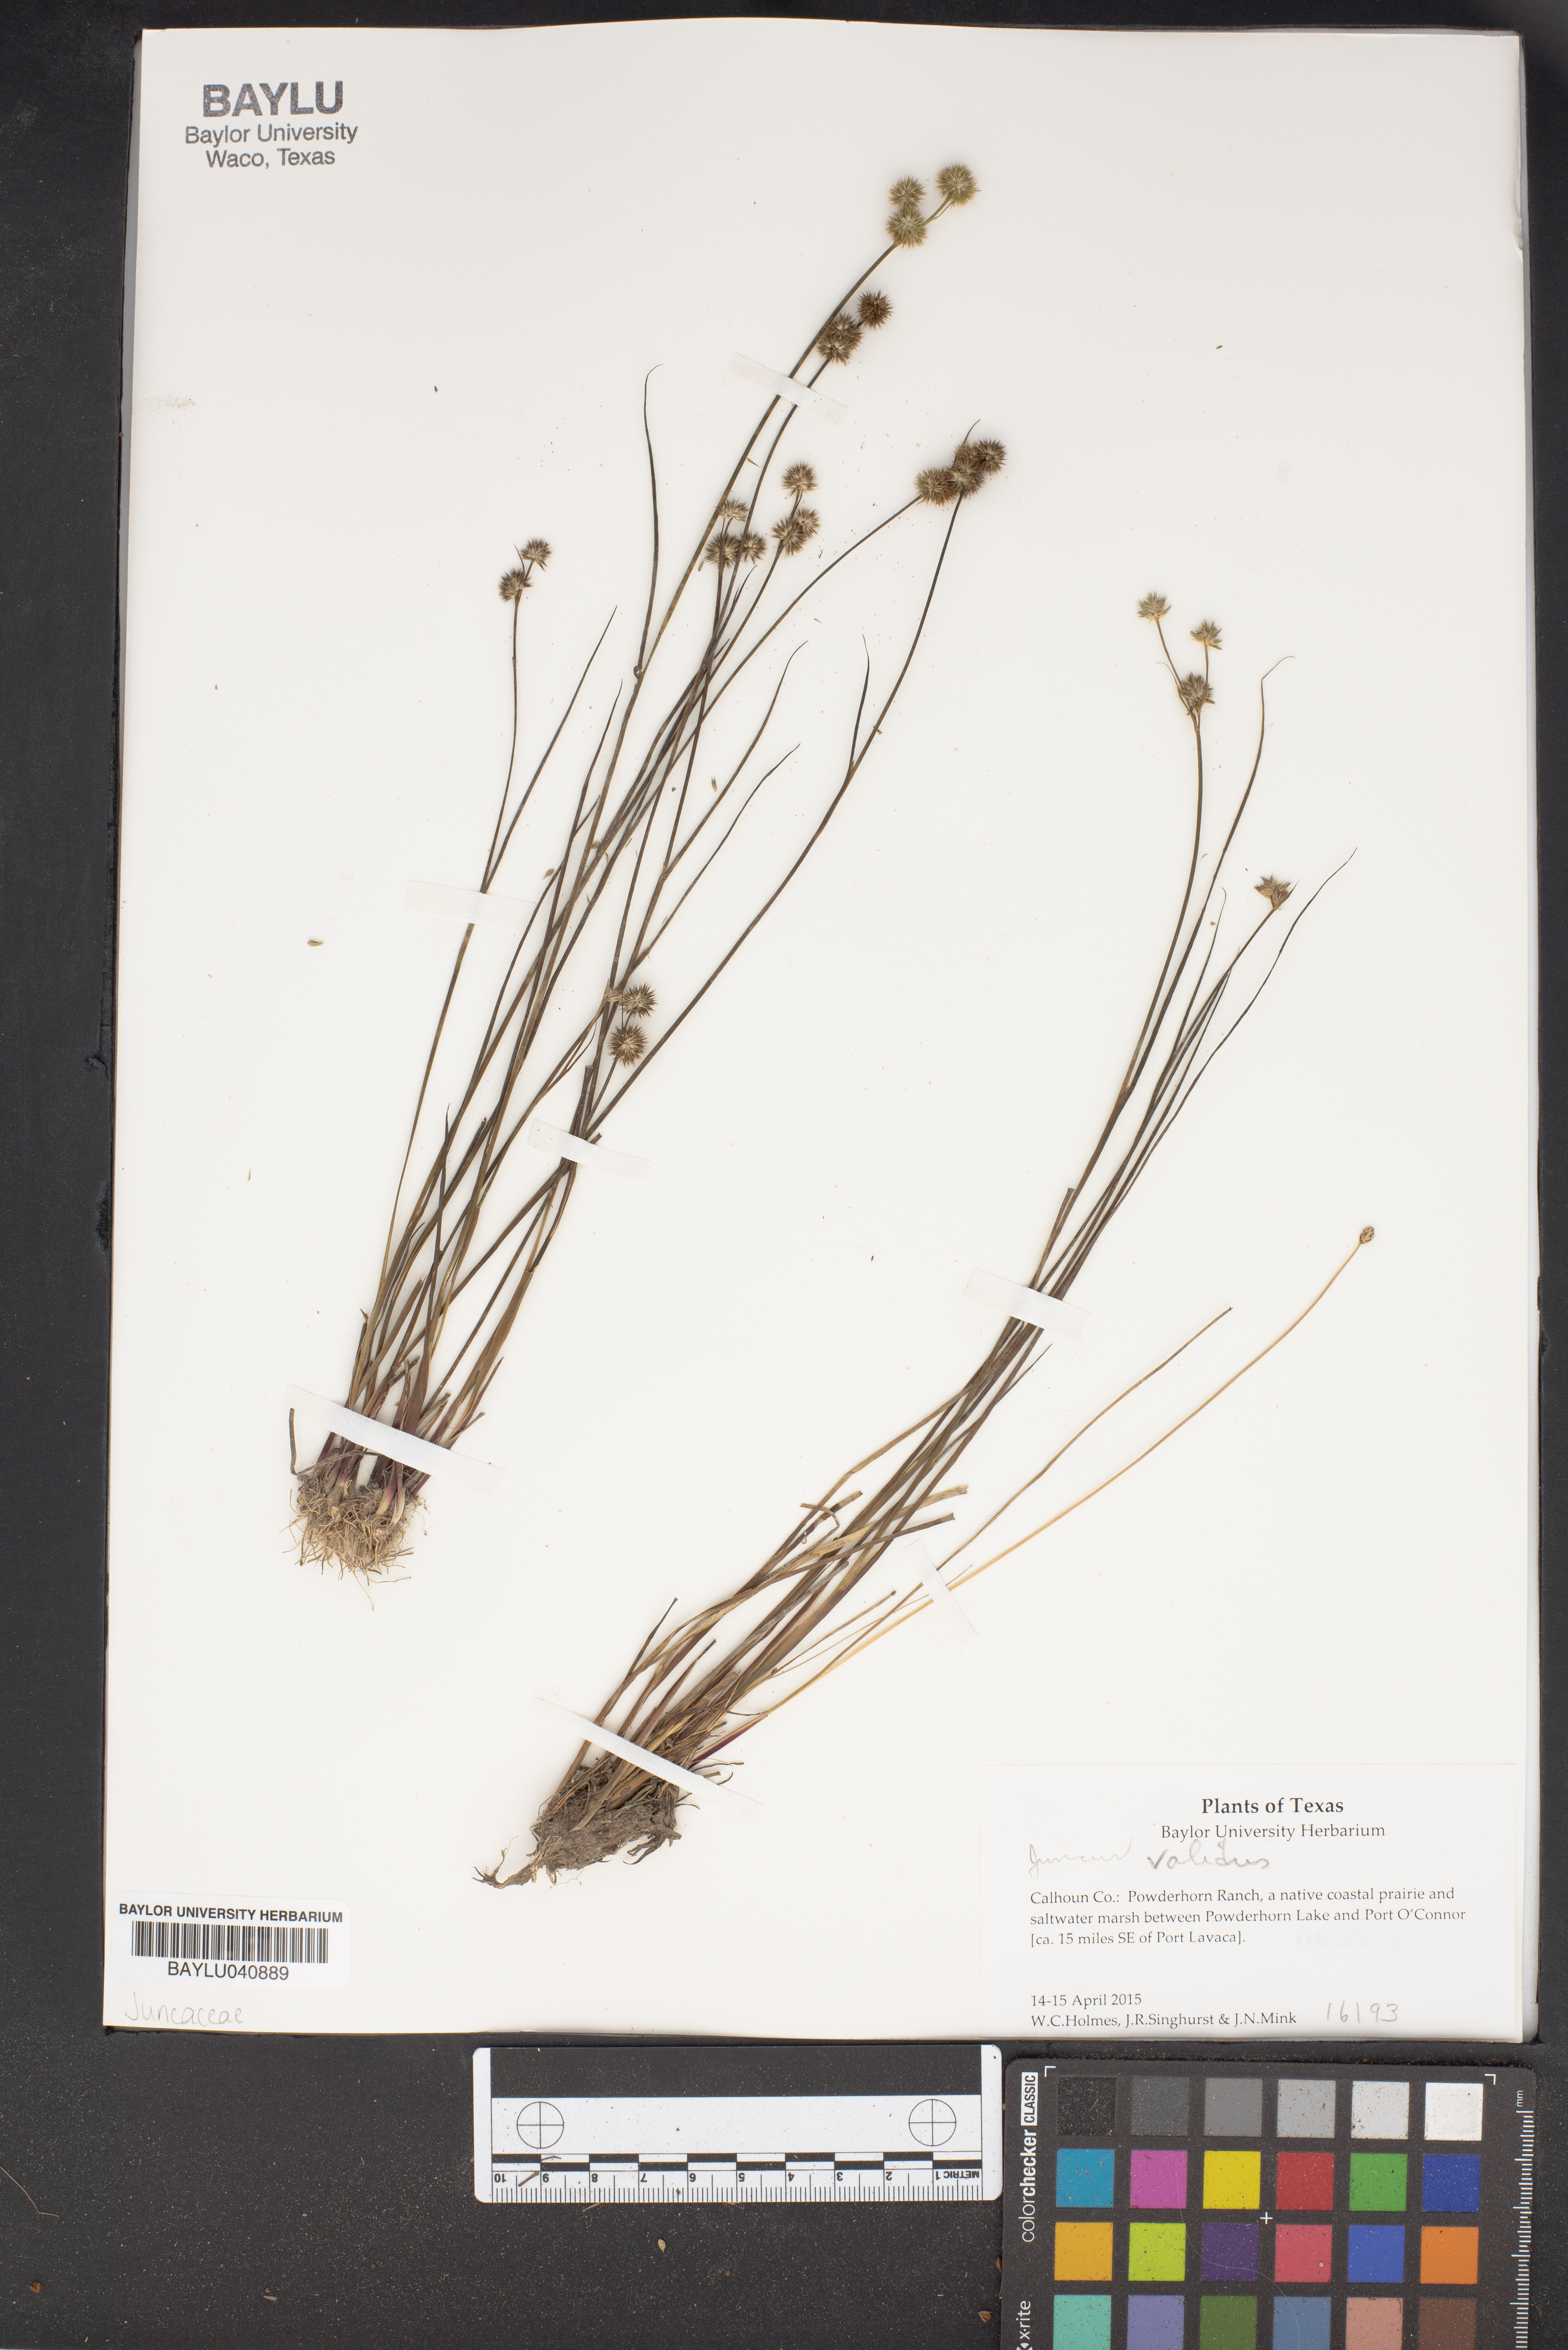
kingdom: Plantae
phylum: Tracheophyta
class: Liliopsida
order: Poales
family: Juncaceae
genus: Juncus
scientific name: Juncus validus
